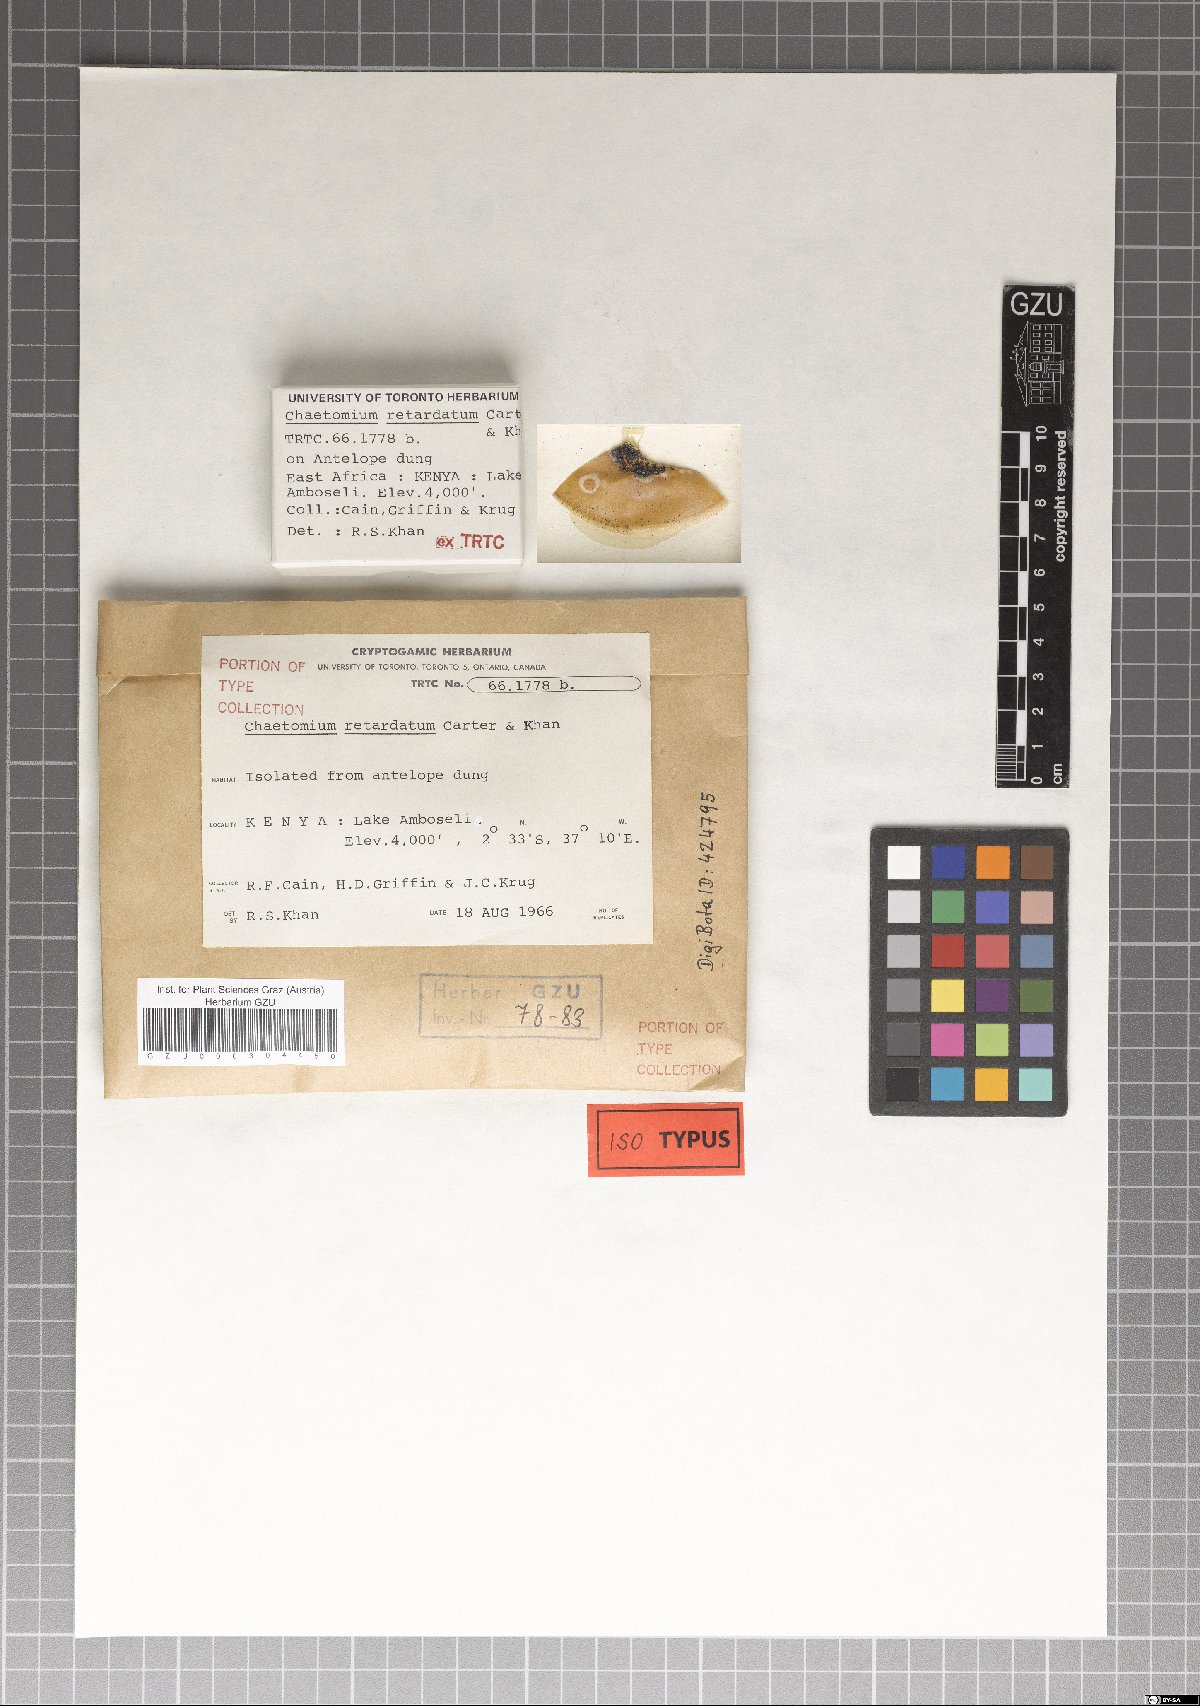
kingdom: Fungi
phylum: Ascomycota
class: Sordariomycetes
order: Sordariales
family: Chaetomiaceae
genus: Botryotrichum
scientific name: Botryotrichum retardatum
